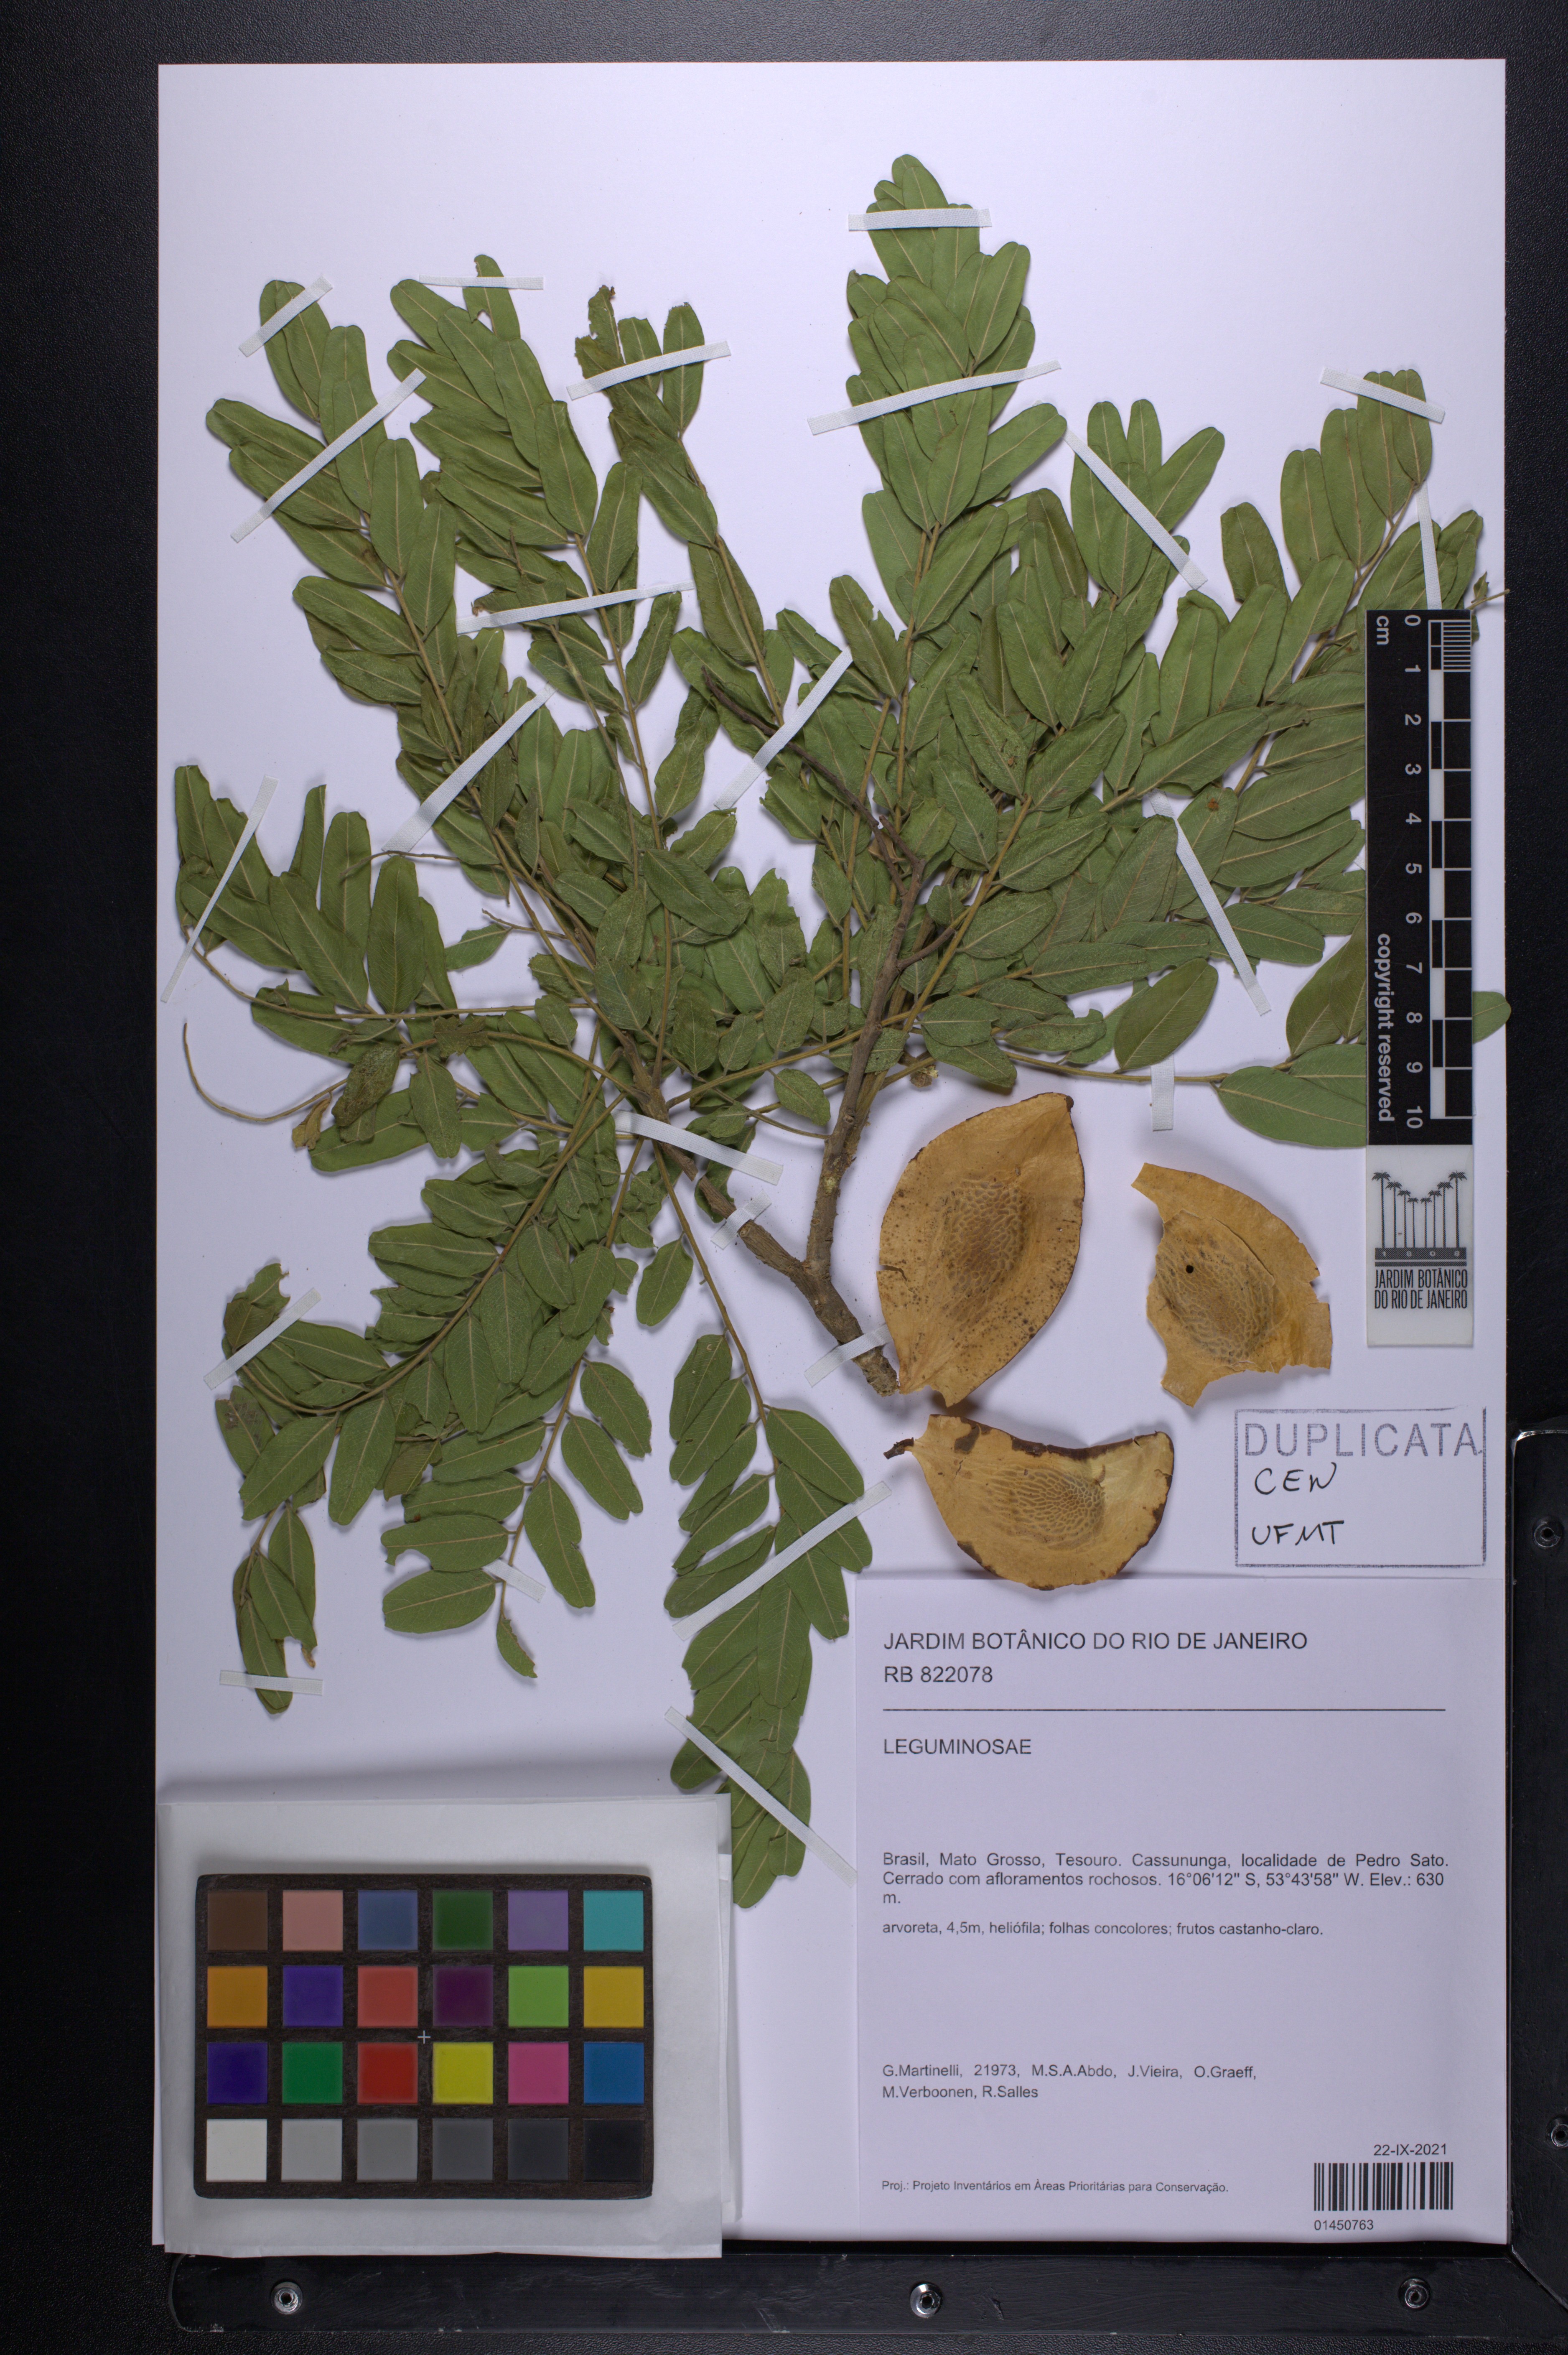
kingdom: Plantae
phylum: Tracheophyta
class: Magnoliopsida
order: Fabales
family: Fabaceae
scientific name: Fabaceae
